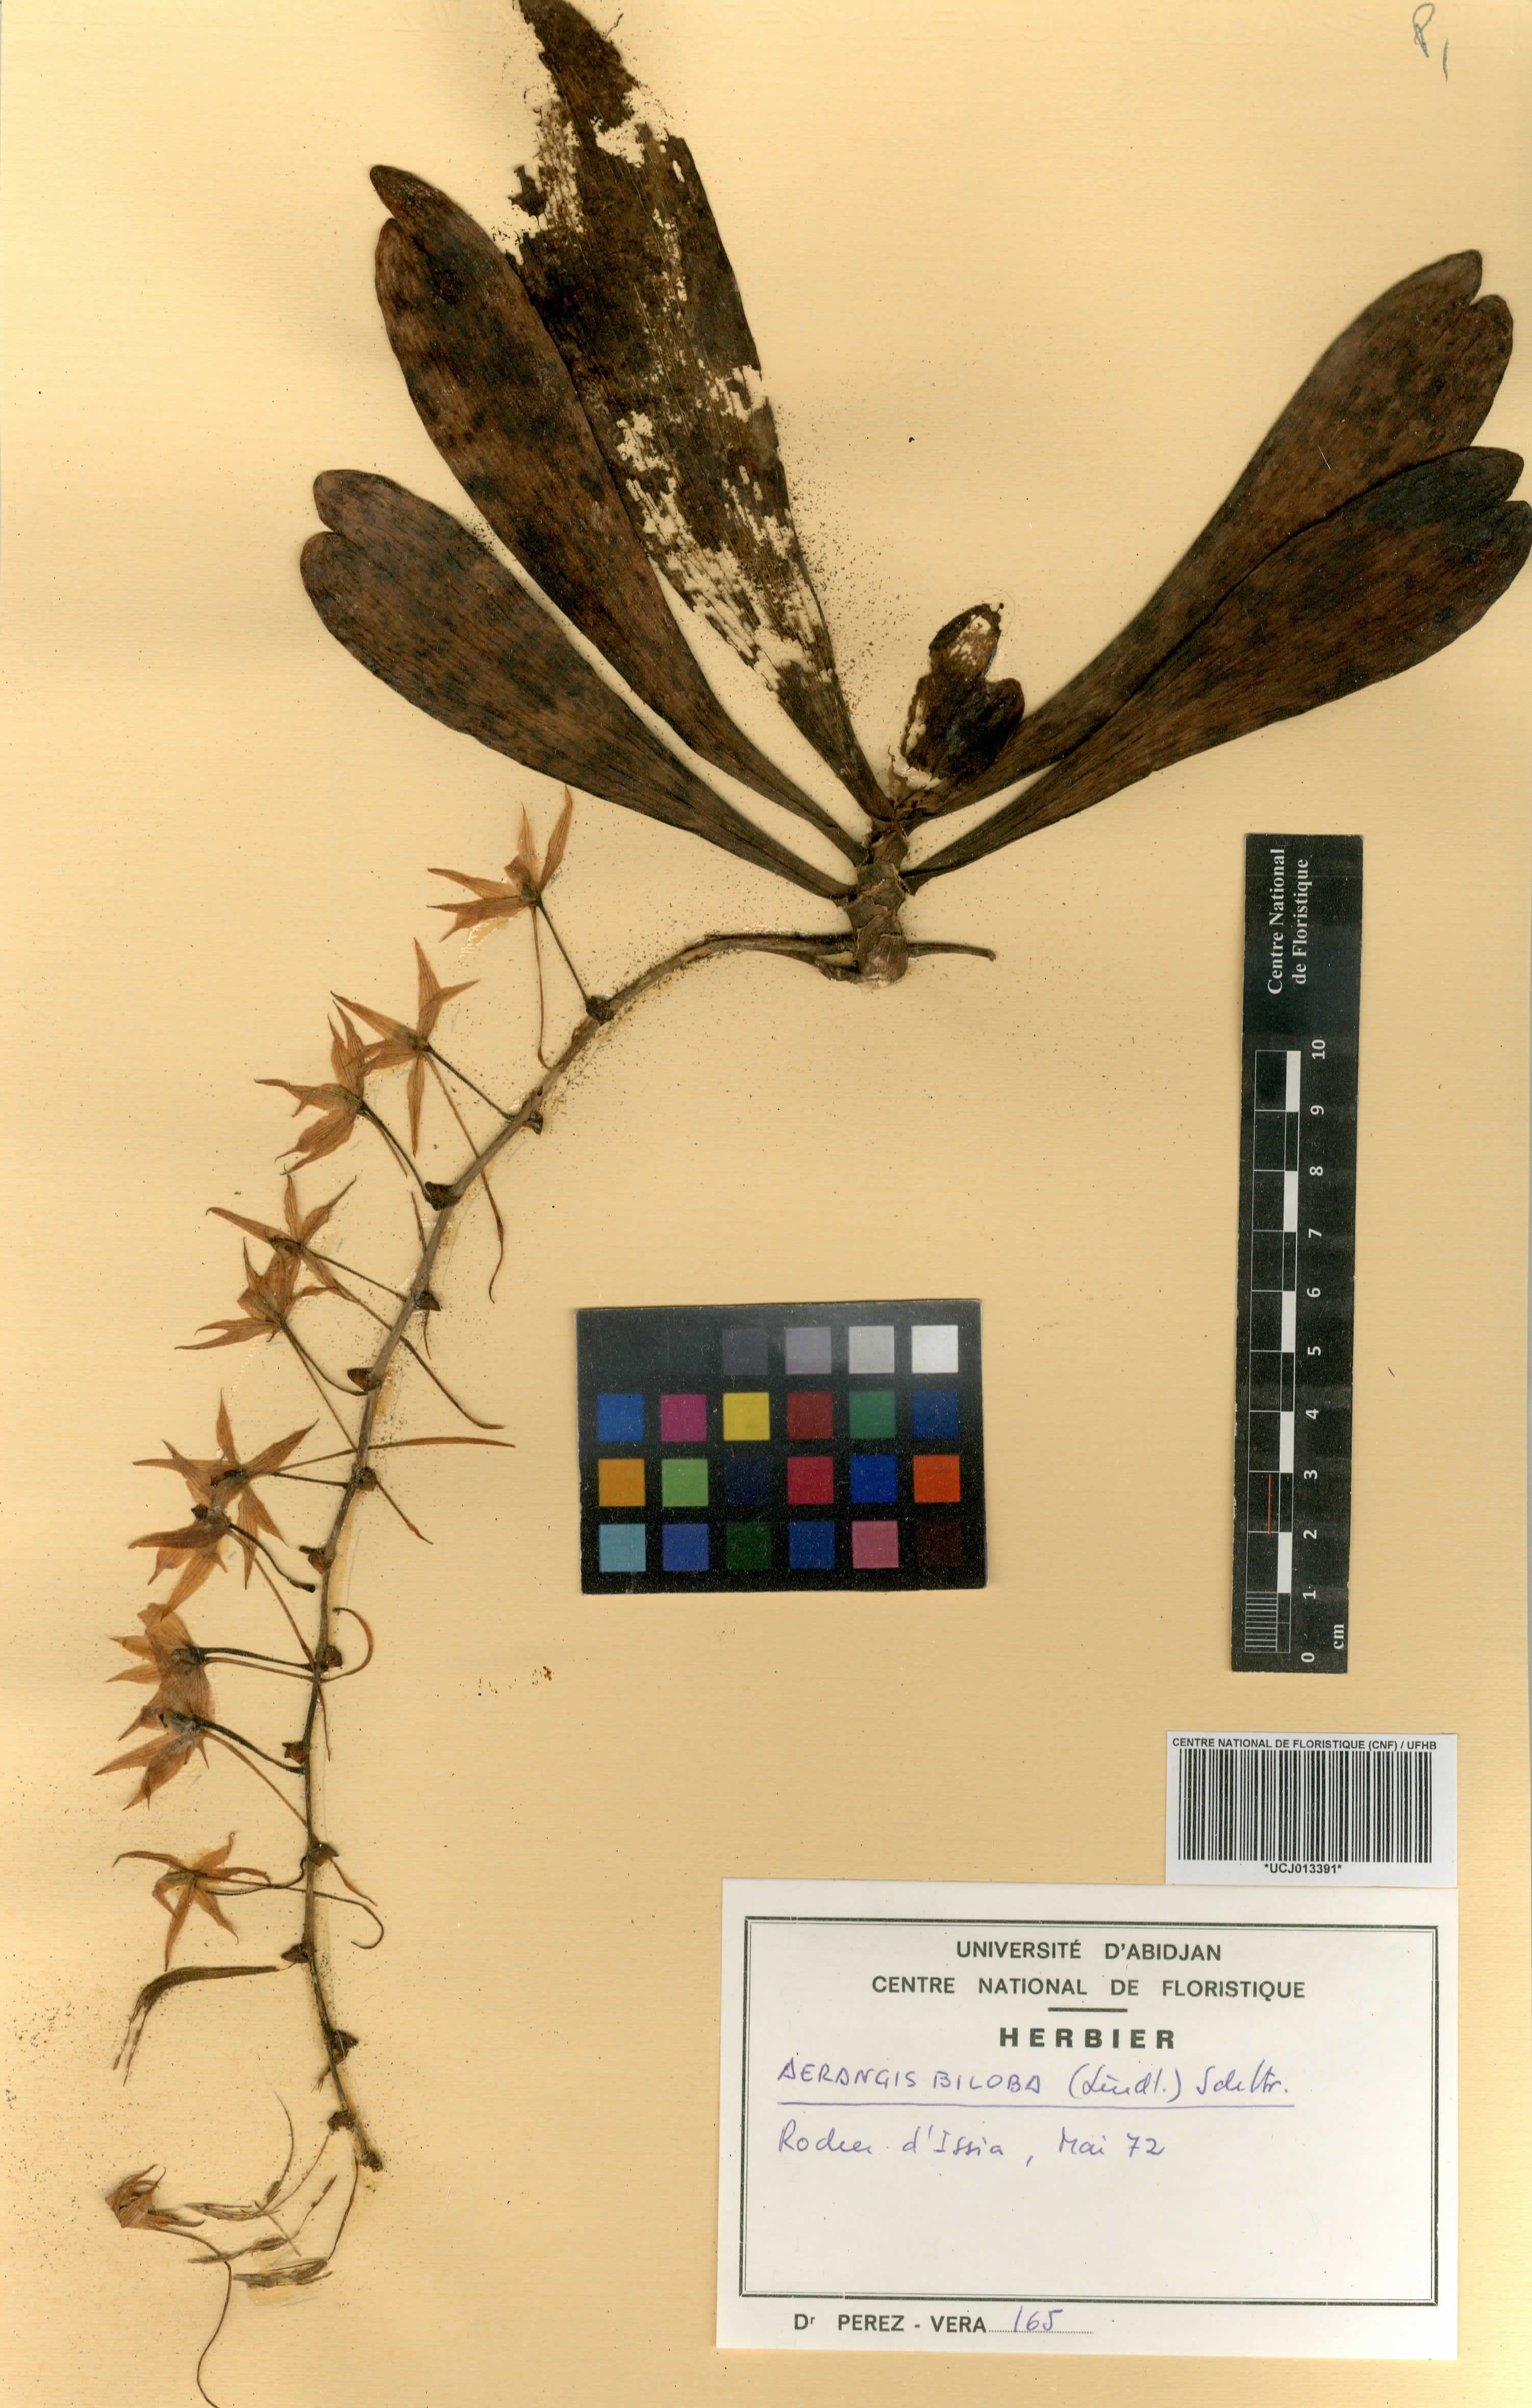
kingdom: Plantae
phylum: Tracheophyta
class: Liliopsida
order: Asparagales
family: Orchidaceae
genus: Aerangis
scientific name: Aerangis biloba
